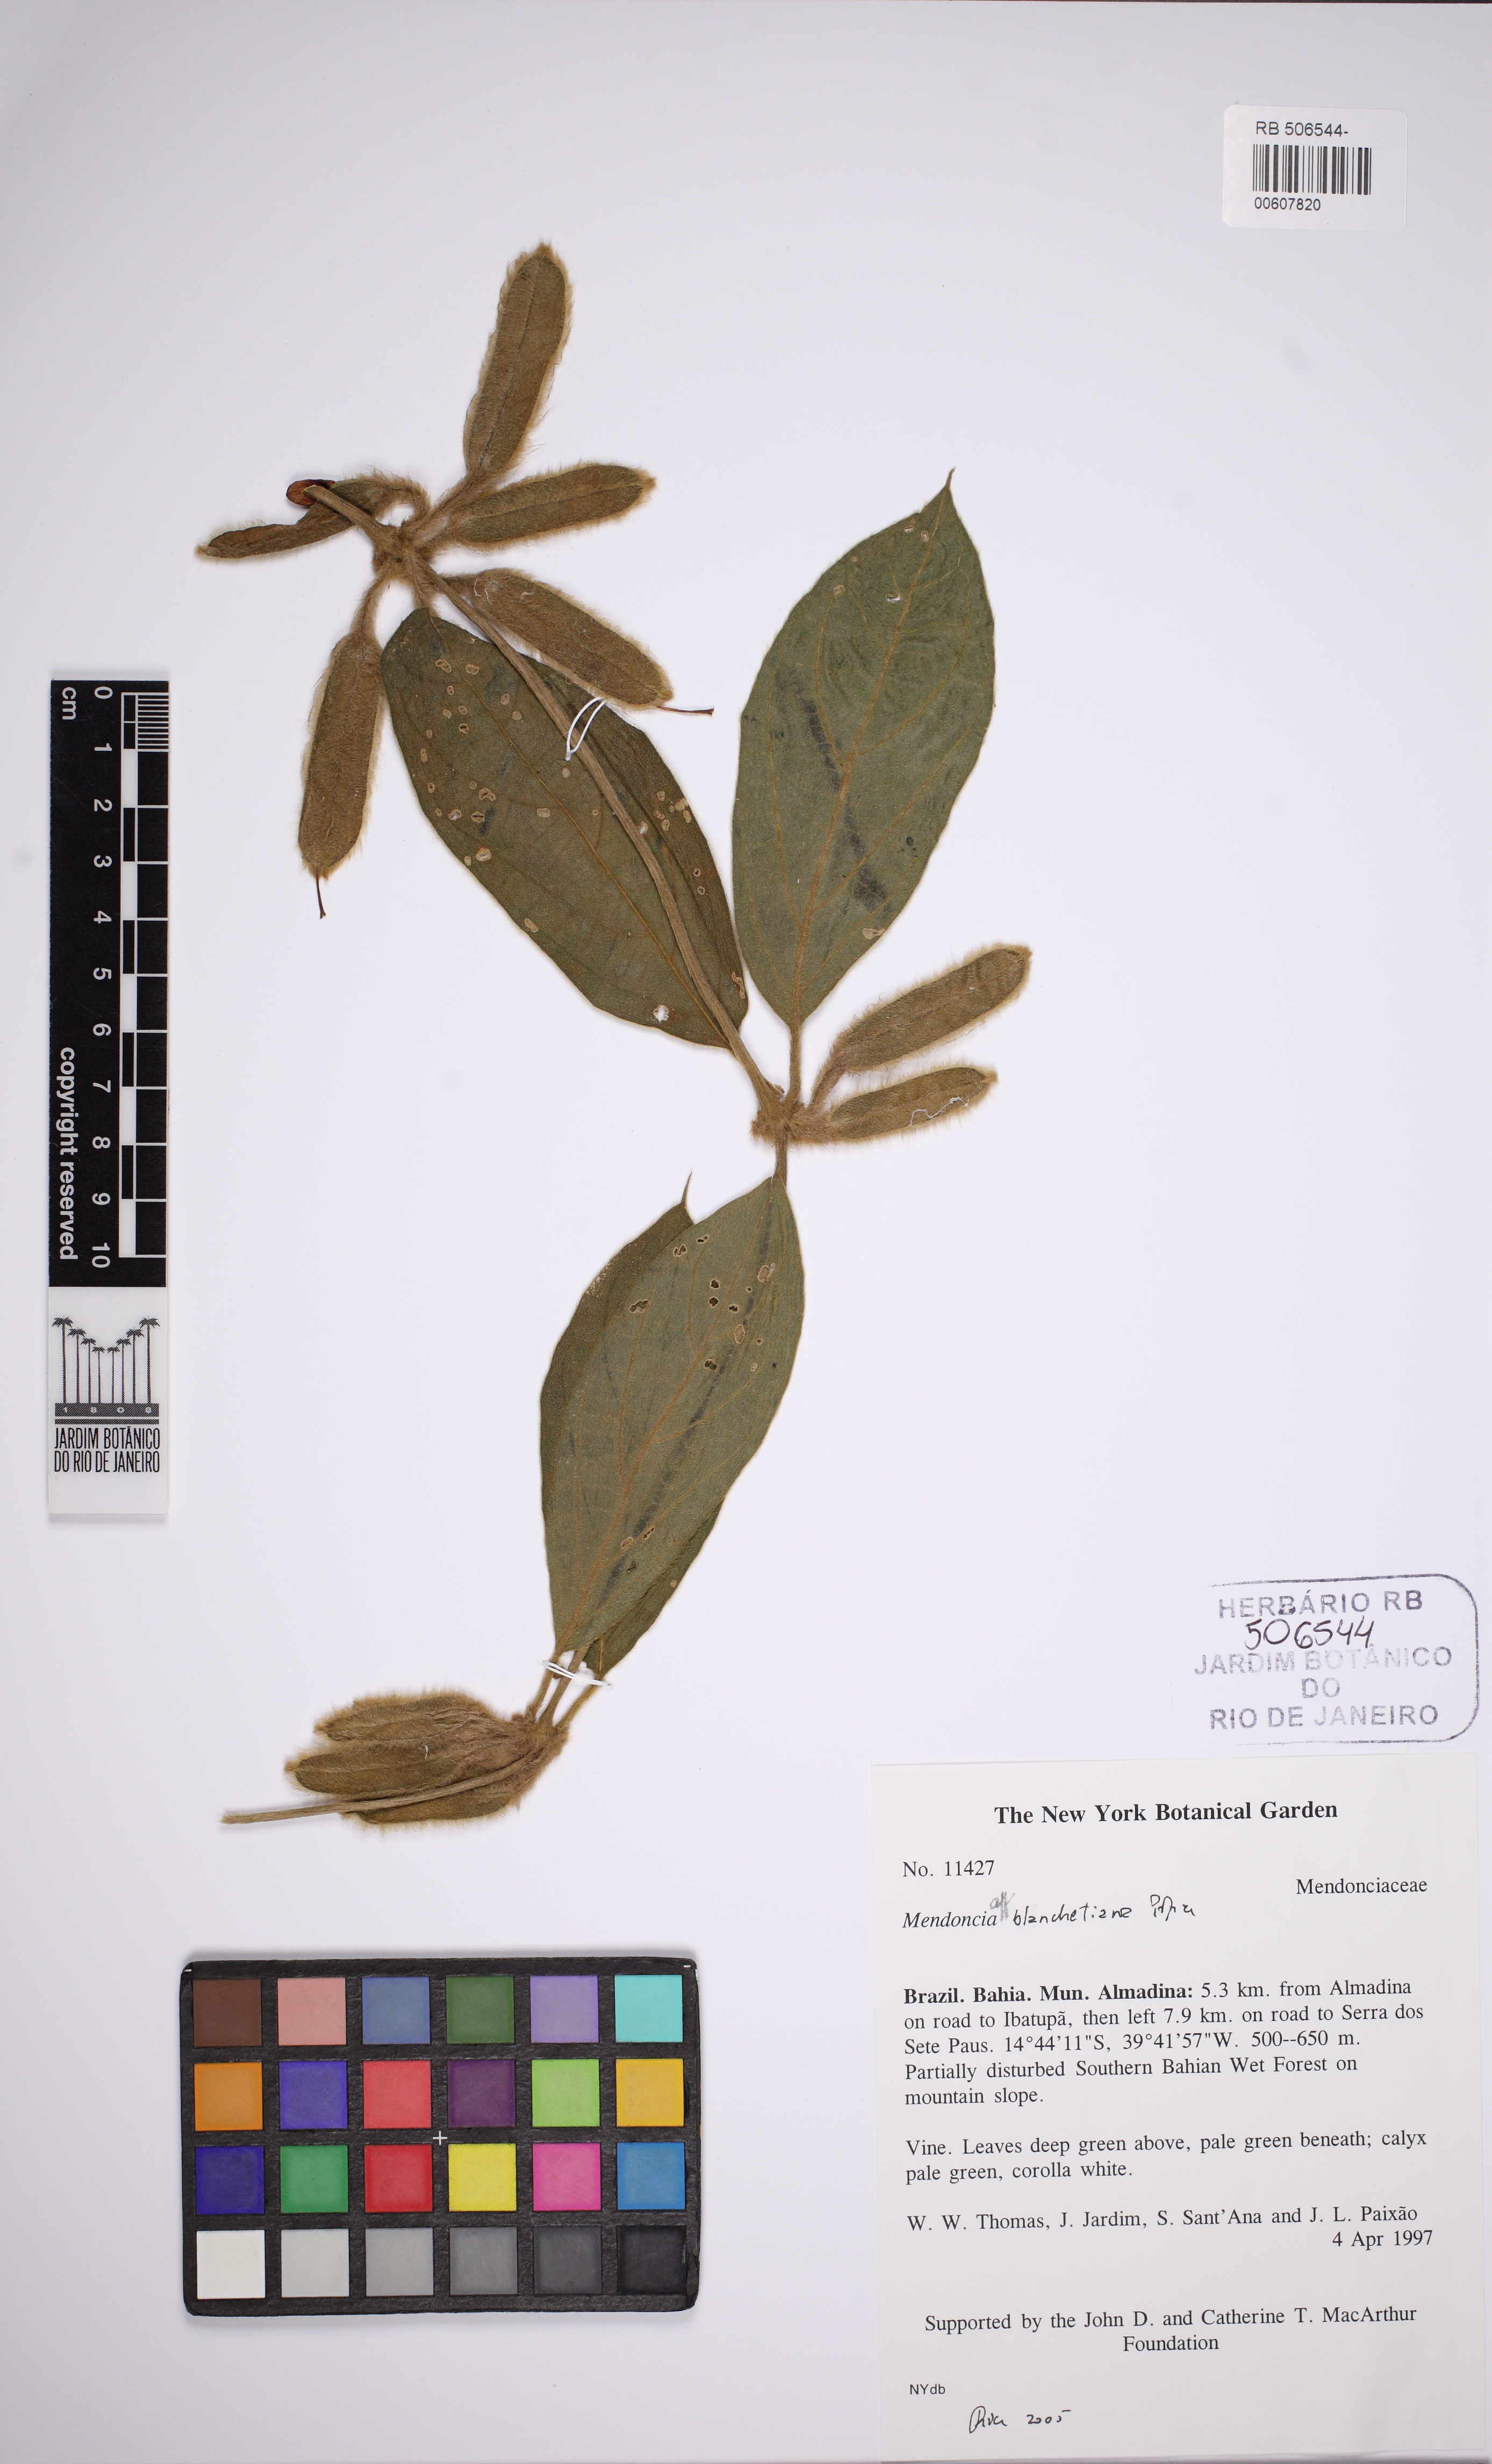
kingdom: Plantae
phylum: Tracheophyta
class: Magnoliopsida
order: Lamiales
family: Acanthaceae
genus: Mendoncia
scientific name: Mendoncia riedeliana
